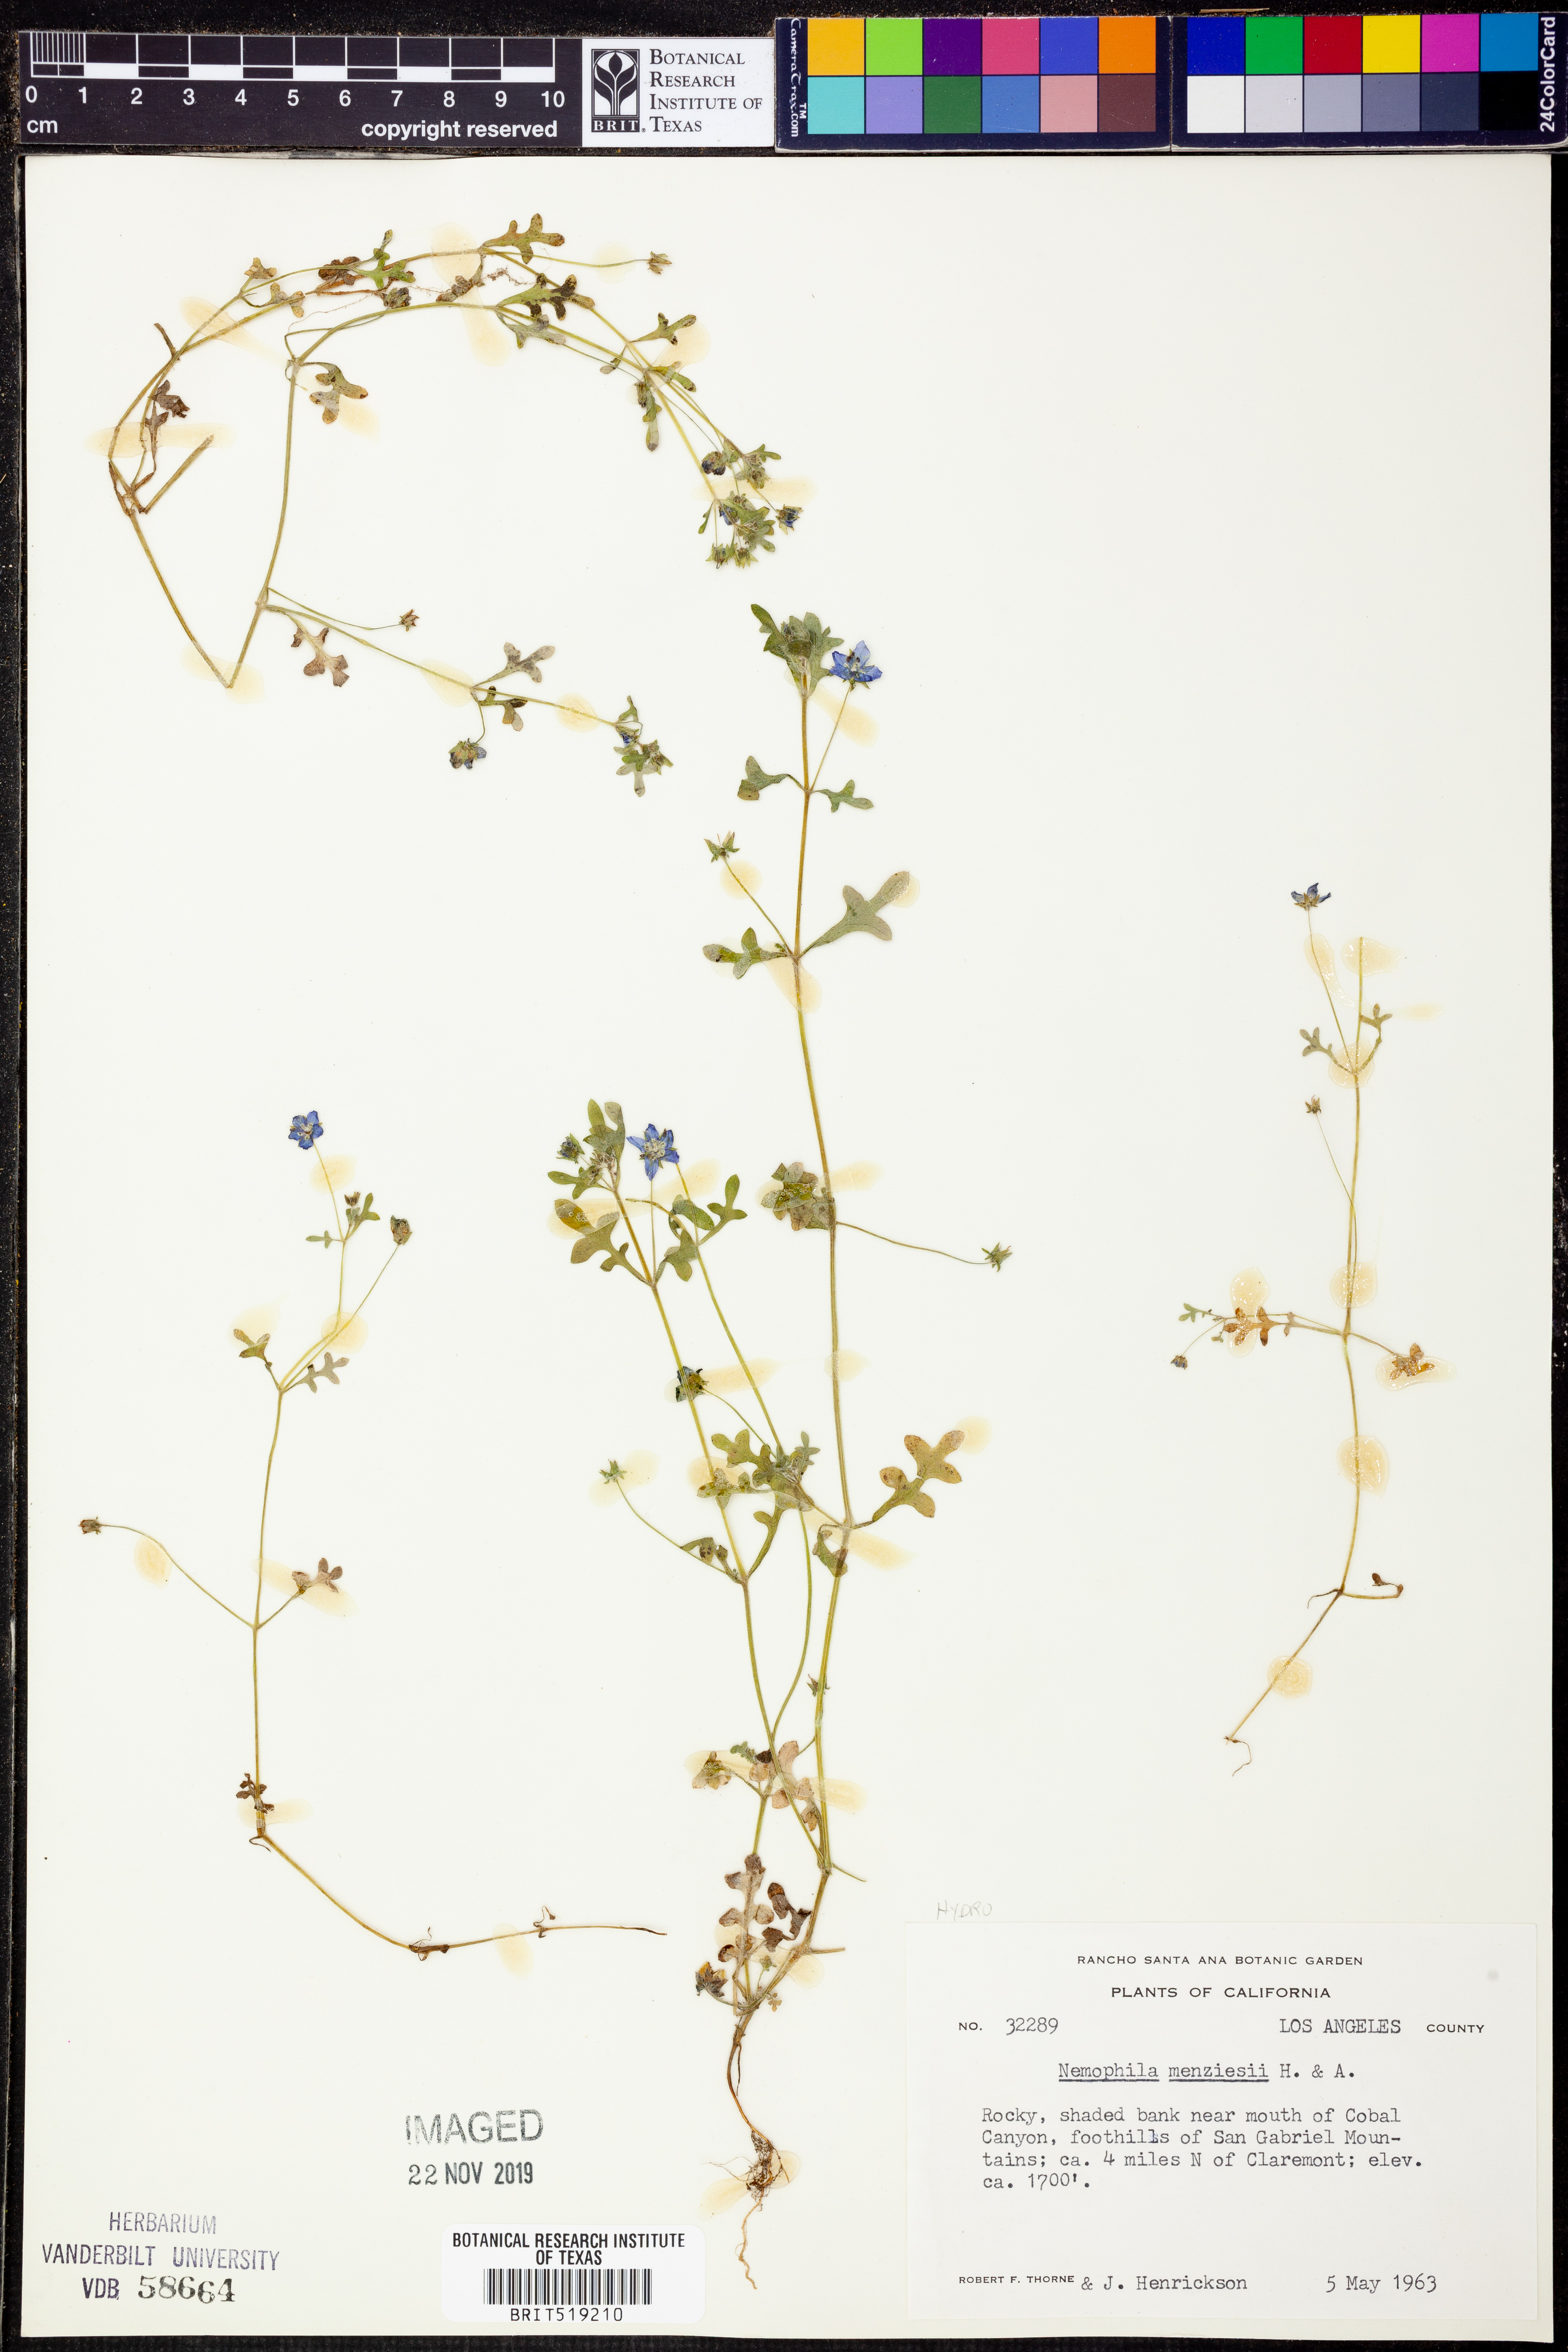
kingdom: Plantae
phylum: Tracheophyta
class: Magnoliopsida
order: Boraginales
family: Hydrophyllaceae
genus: Nemophila
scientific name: Nemophila menziesii
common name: Baby's-blue-eyes
